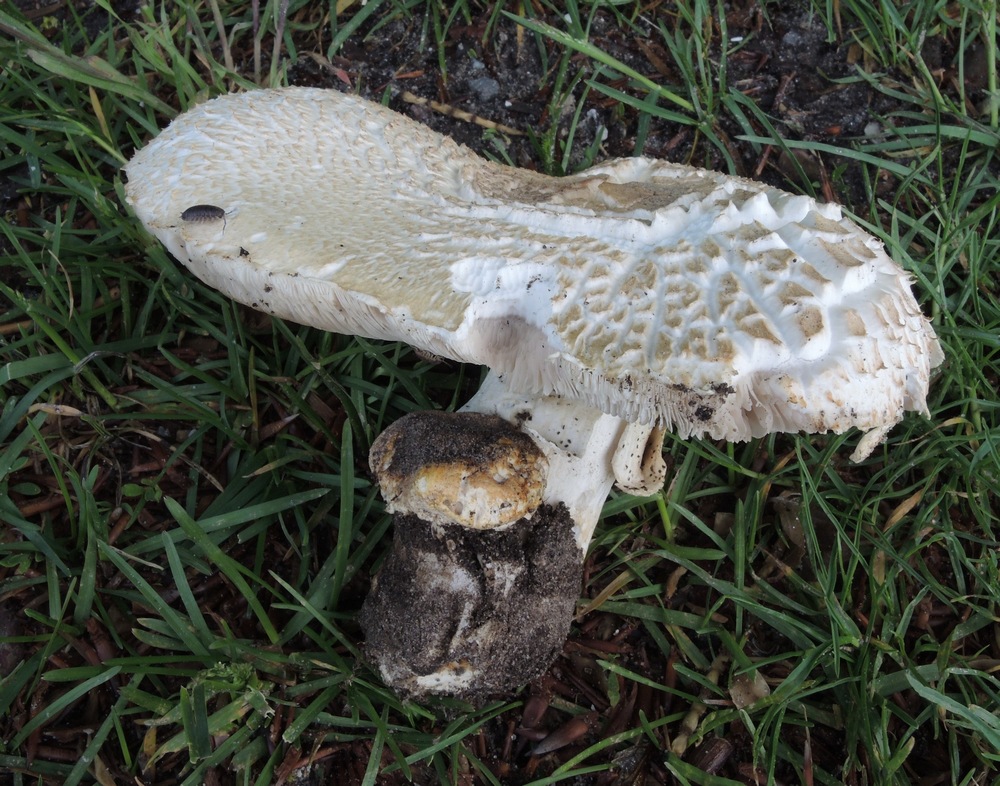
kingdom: Fungi
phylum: Basidiomycota
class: Agaricomycetes
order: Agaricales
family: Agaricaceae
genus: Agaricus
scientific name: Agaricus bernardii
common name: strandengs-champignon
